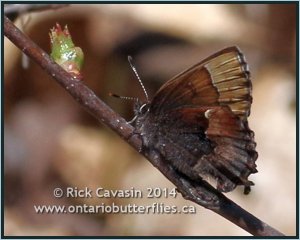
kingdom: Animalia
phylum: Arthropoda
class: Insecta
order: Lepidoptera
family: Lycaenidae
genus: Incisalia
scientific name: Incisalia henrici
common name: Henry's Elfin
